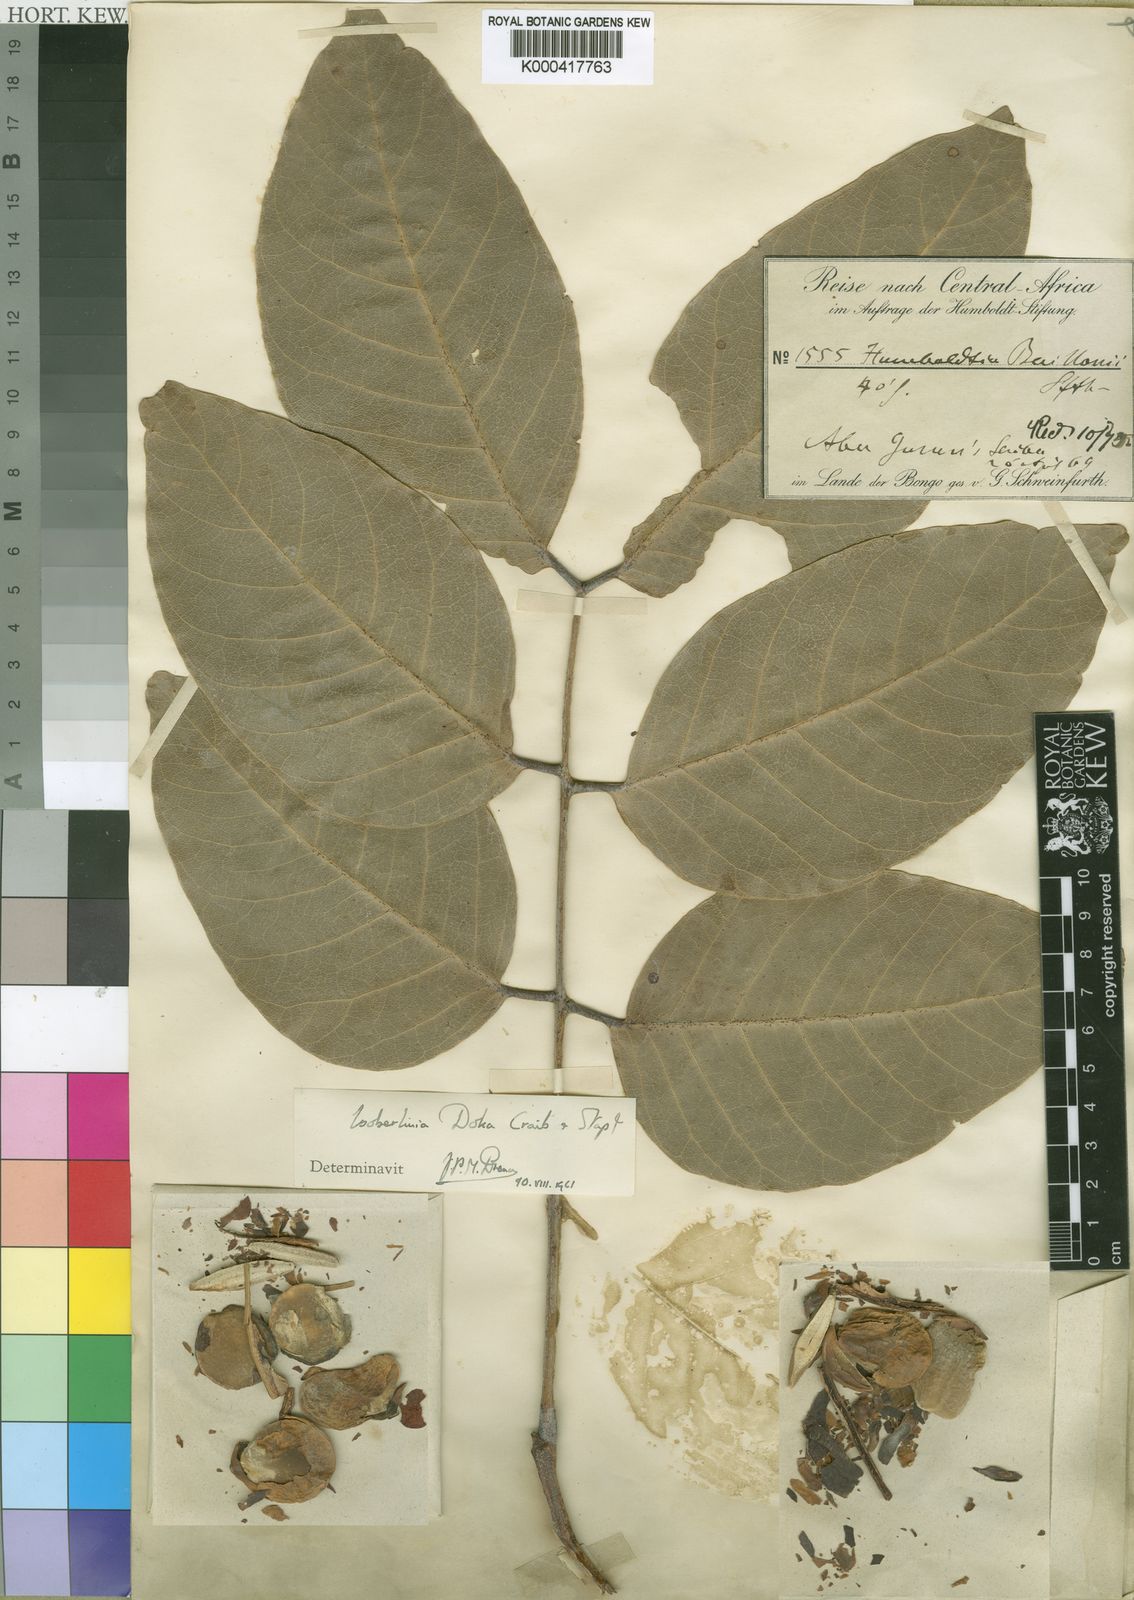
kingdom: Plantae
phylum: Tracheophyta
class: Magnoliopsida
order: Fabales
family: Fabaceae
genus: Isoberlinia
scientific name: Isoberlinia doka
